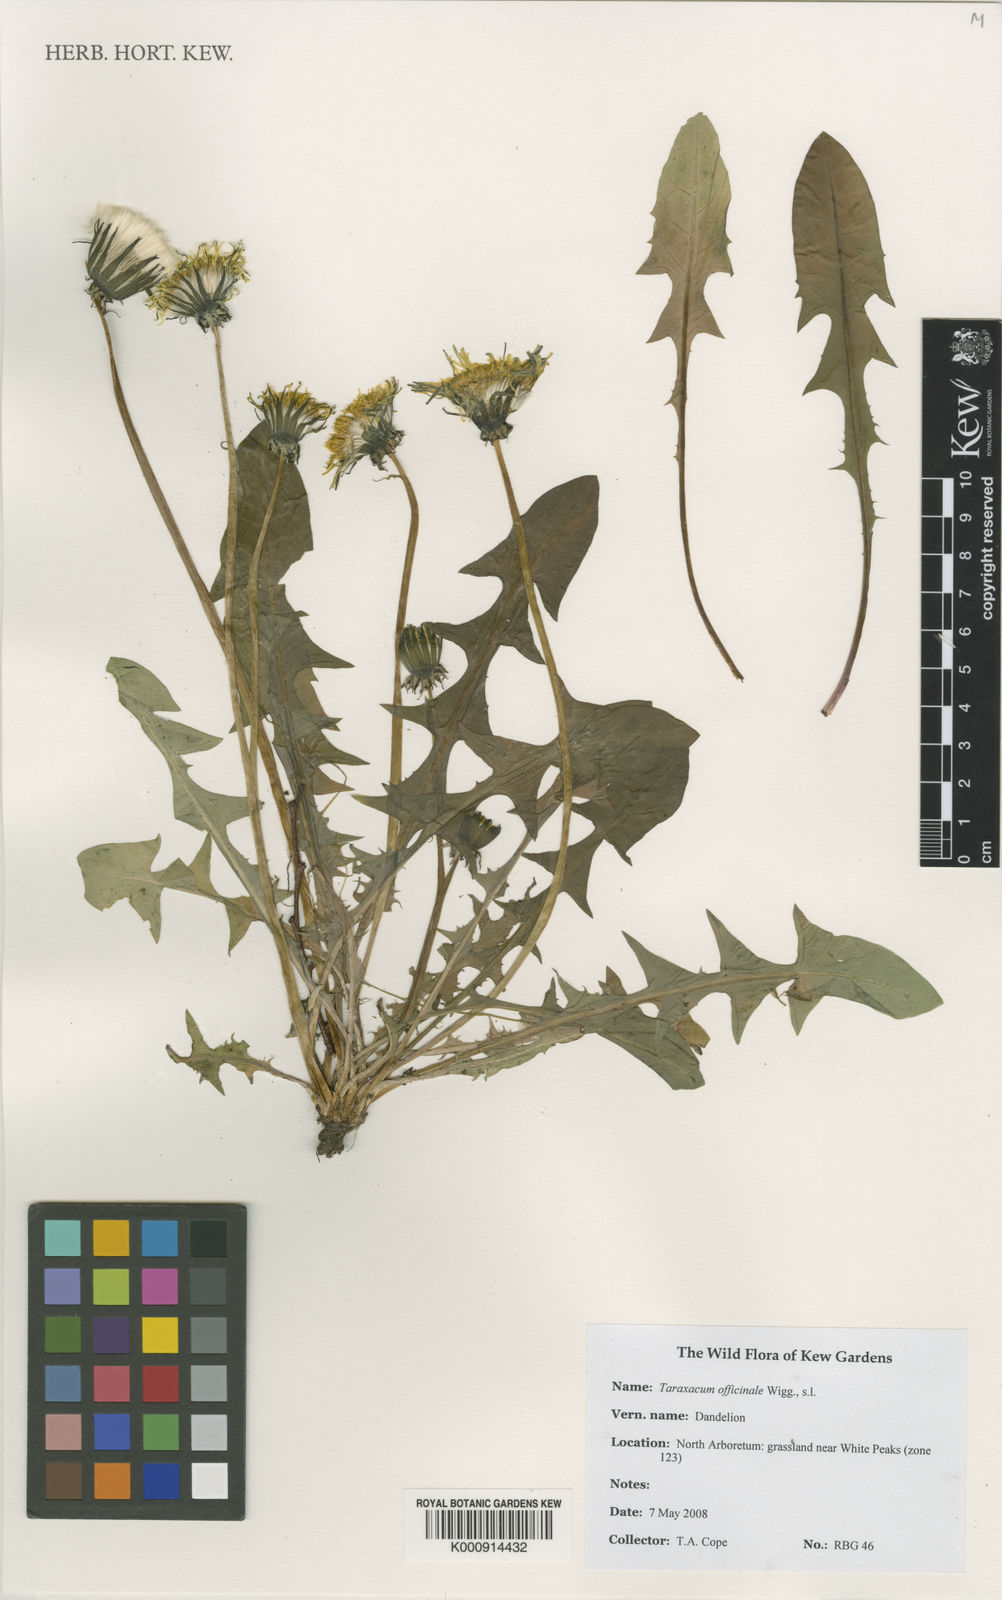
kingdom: Plantae
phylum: Tracheophyta
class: Magnoliopsida
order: Asterales
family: Asteraceae
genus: Taraxacum
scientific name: Taraxacum
